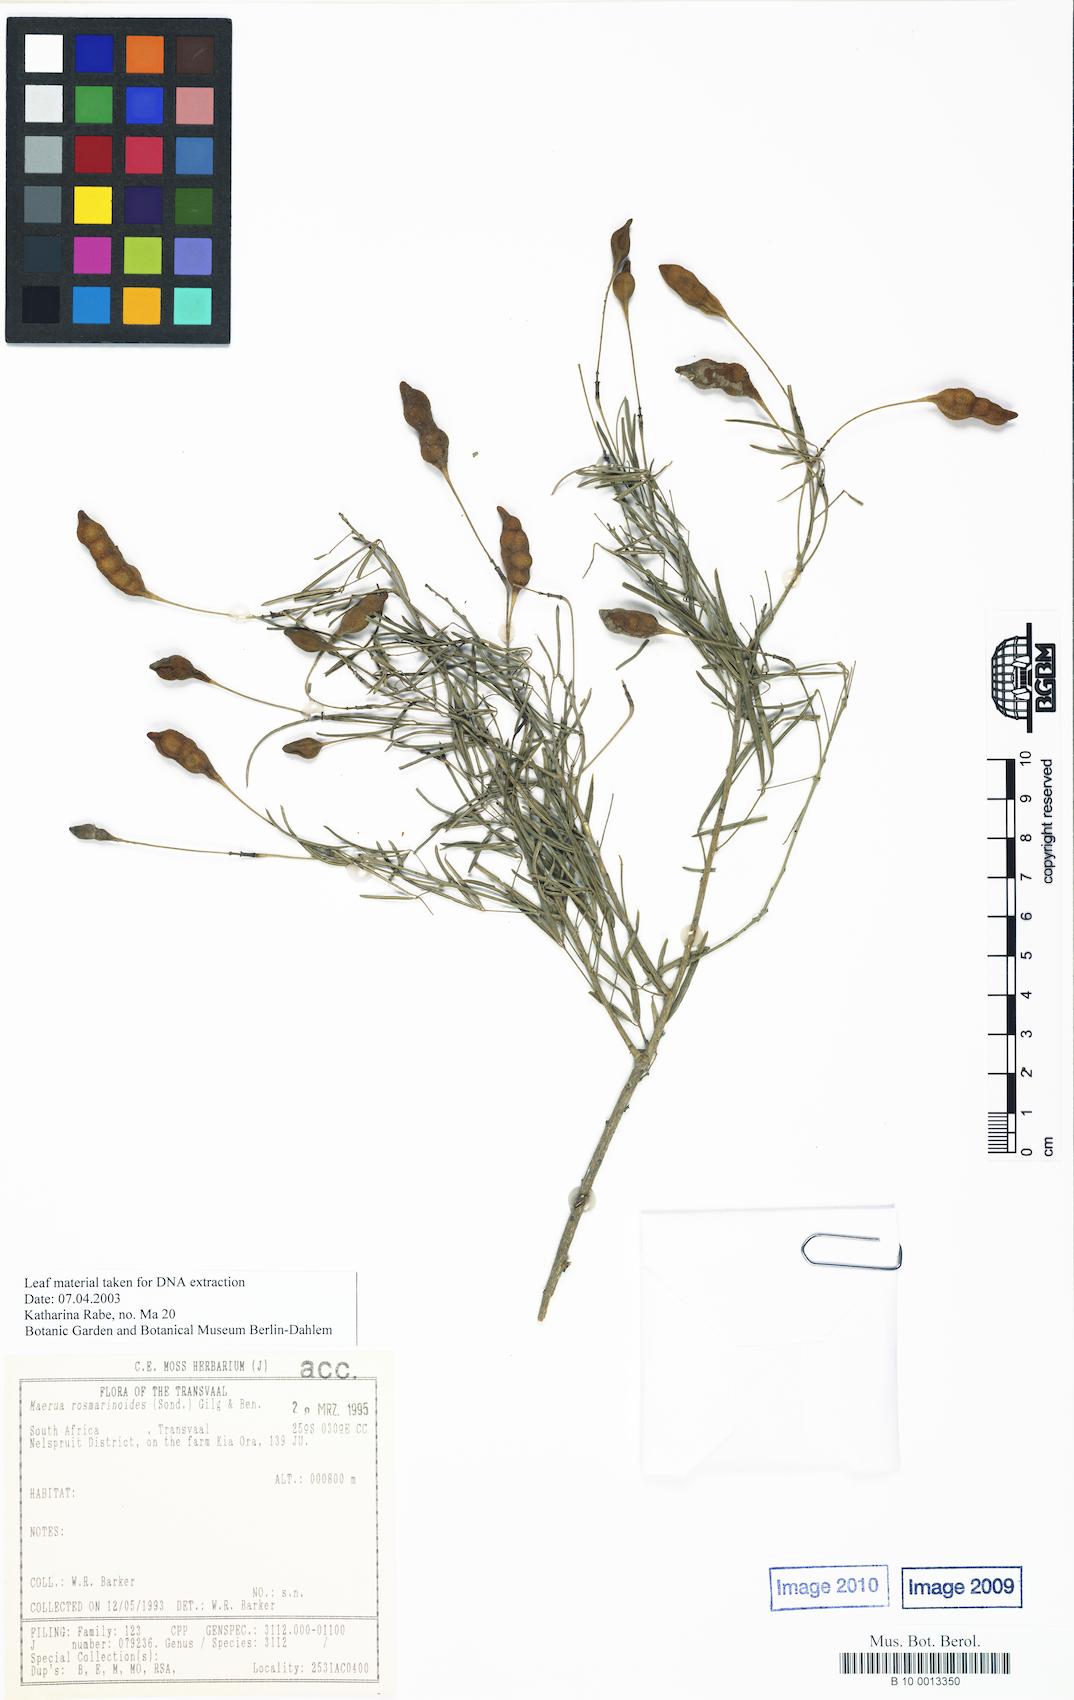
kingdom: Plantae
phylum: Tracheophyta
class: Magnoliopsida
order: Brassicales
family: Capparaceae
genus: Maerua
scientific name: Maerua rosmarinoides
